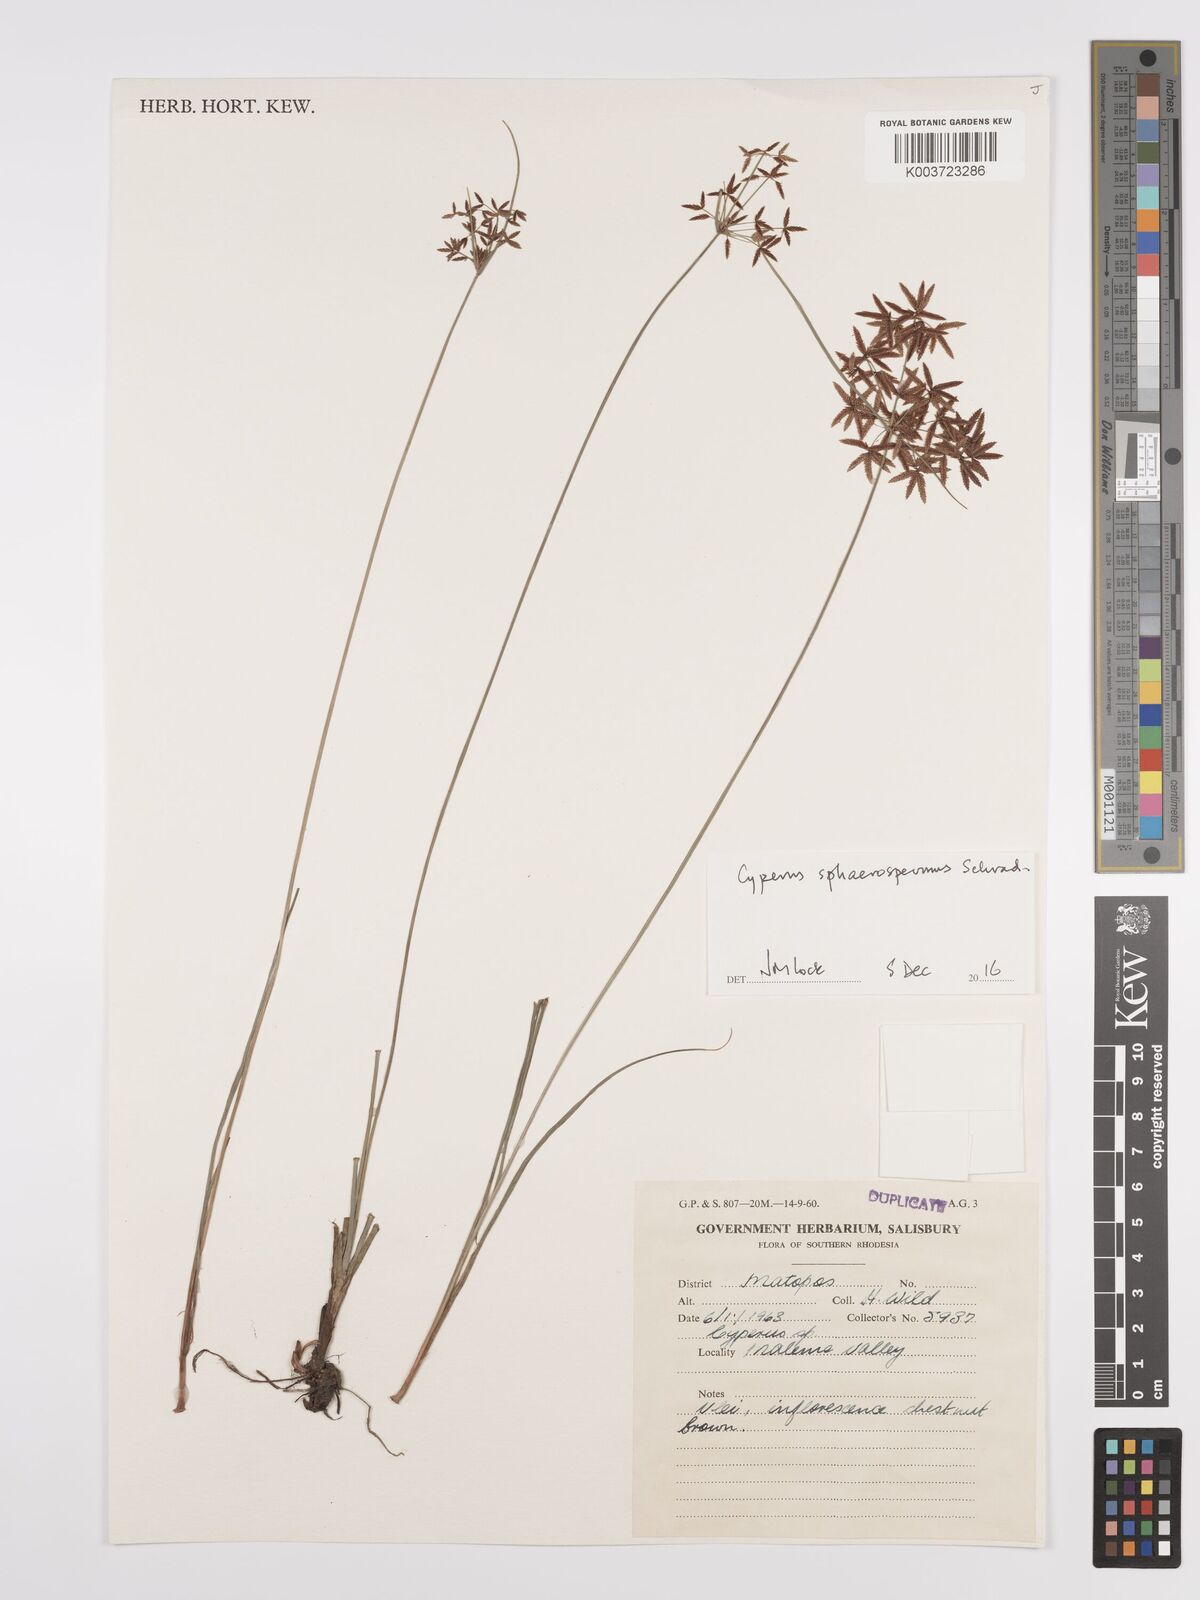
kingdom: Plantae
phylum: Tracheophyta
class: Liliopsida
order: Poales
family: Cyperaceae
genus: Cyperus
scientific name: Cyperus denudatus
